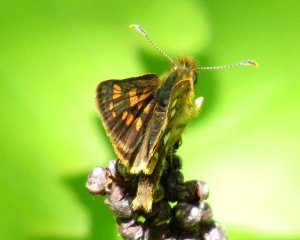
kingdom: Animalia
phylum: Arthropoda
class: Insecta
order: Lepidoptera
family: Hesperiidae
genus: Carterocephalus
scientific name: Carterocephalus palaemon
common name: Chequered Skipper
